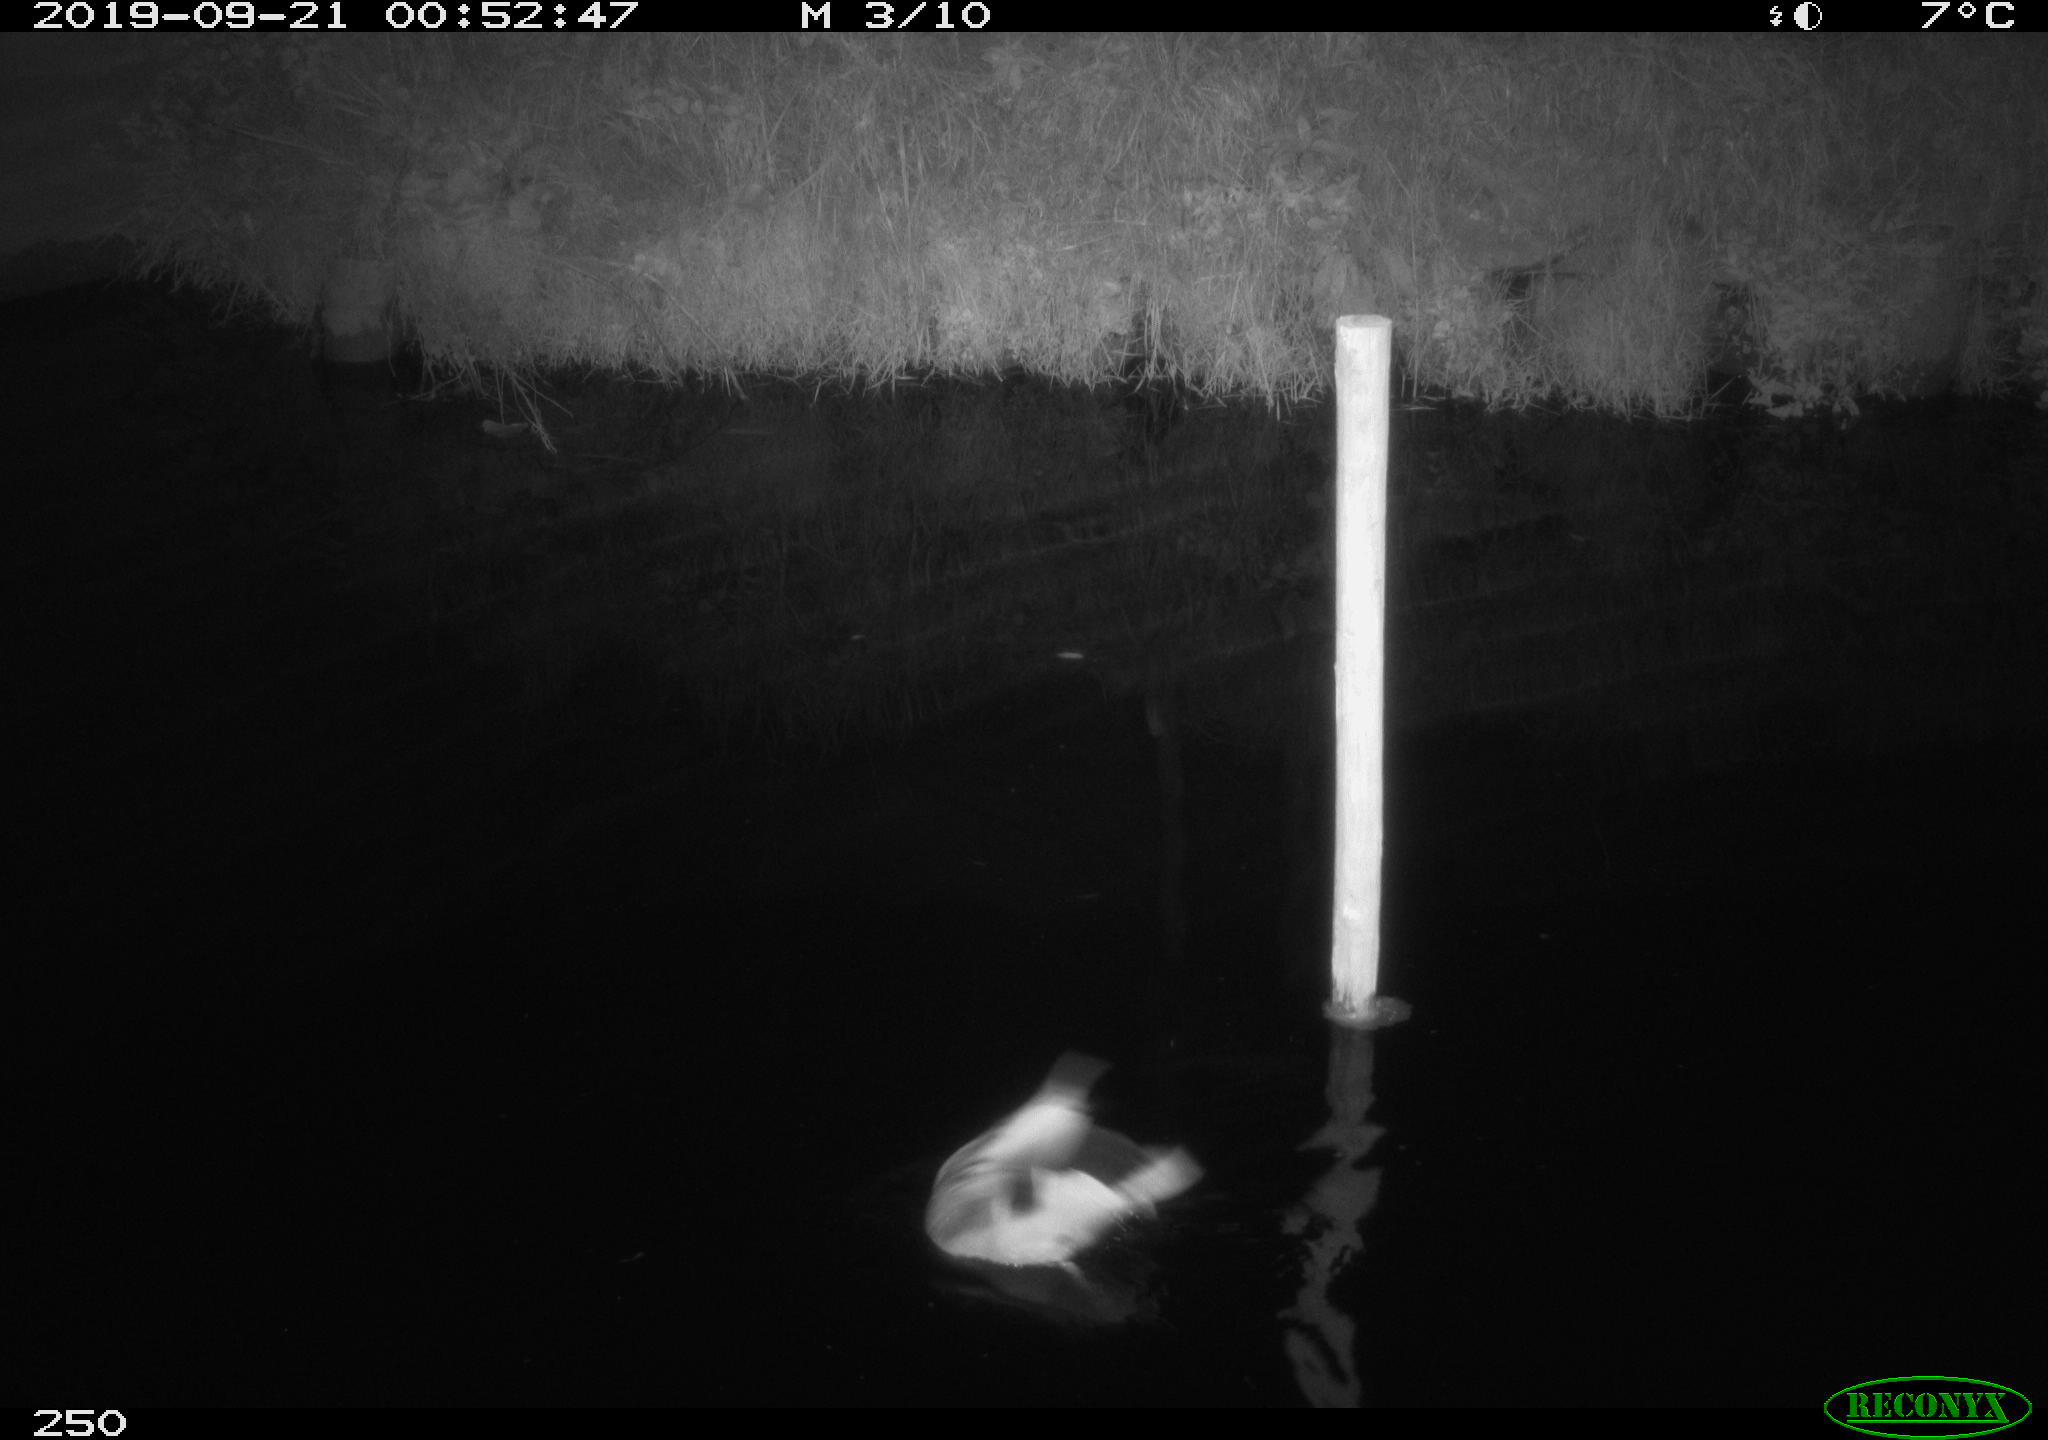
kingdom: Animalia
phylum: Chordata
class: Aves
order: Anseriformes
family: Anatidae
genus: Anas
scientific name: Anas platyrhynchos
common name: Mallard
